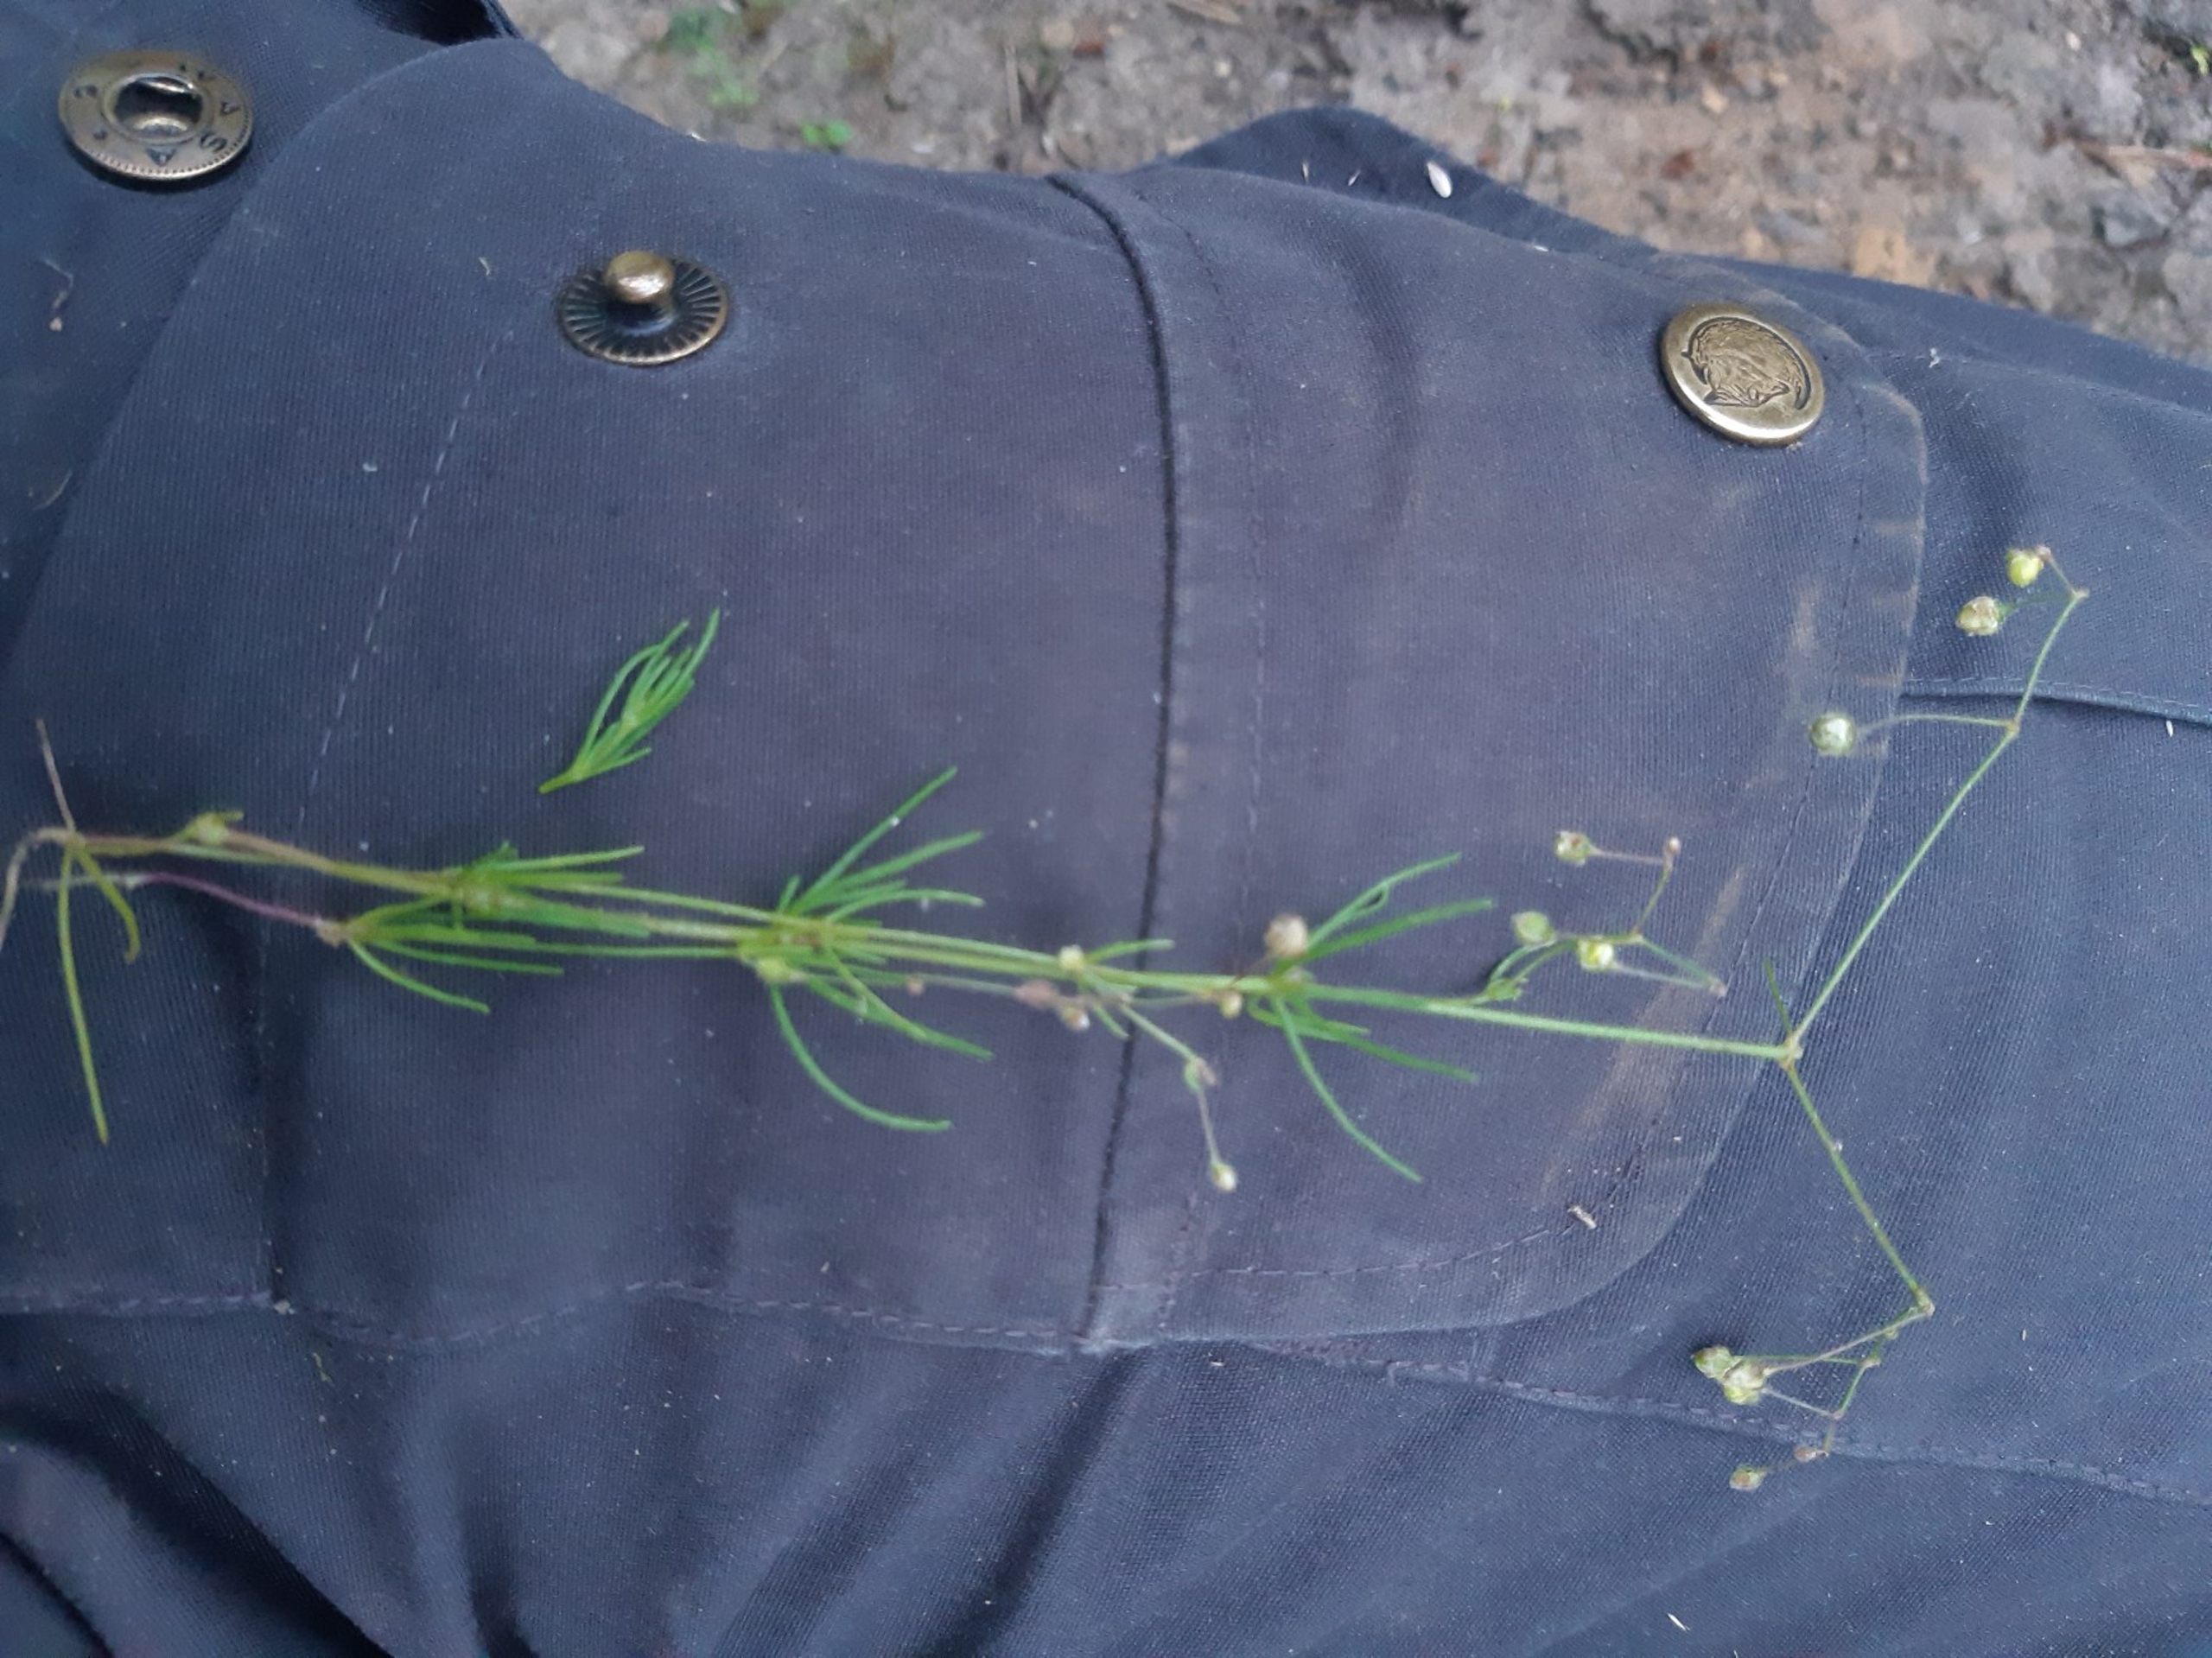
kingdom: Plantae
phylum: Tracheophyta
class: Magnoliopsida
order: Caryophyllales
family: Caryophyllaceae
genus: Spergula
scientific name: Spergula arvensis
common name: Almindelig spergel
